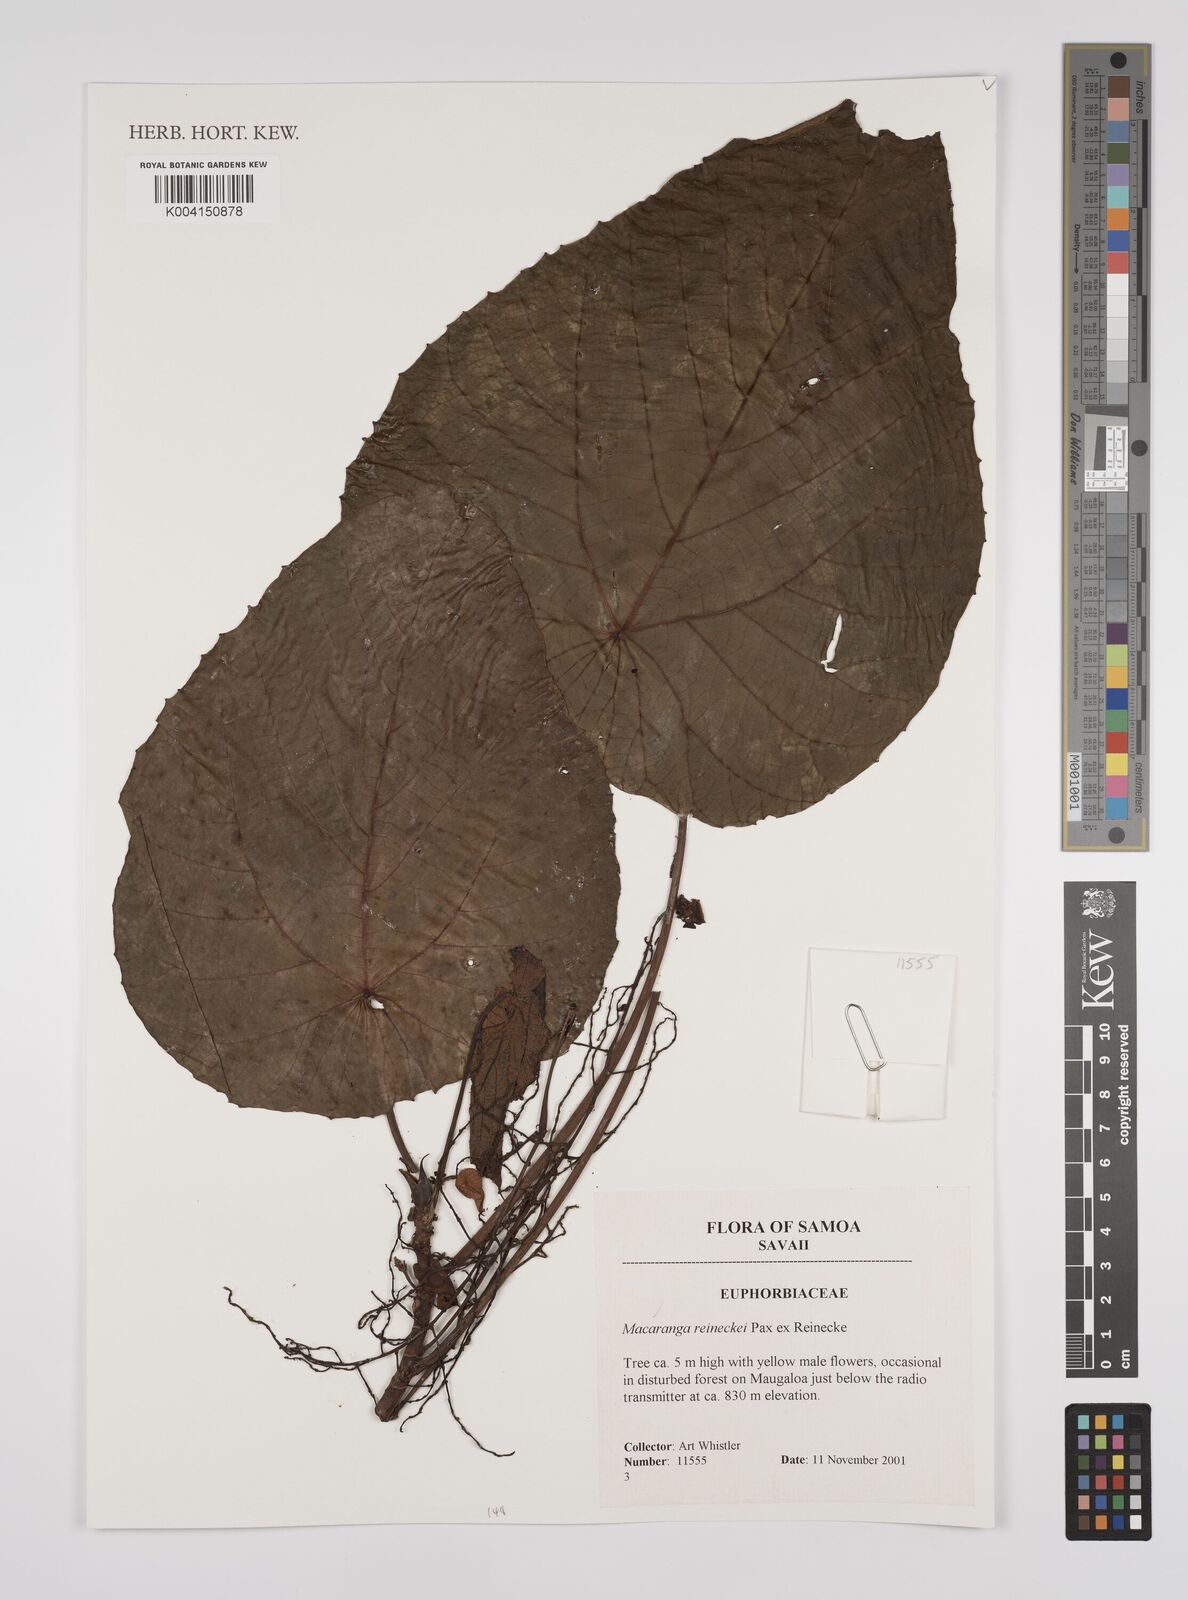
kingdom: Plantae
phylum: Tracheophyta
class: Magnoliopsida
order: Malpighiales
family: Euphorbiaceae
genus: Homalanthus
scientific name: Homalanthus acuminatus
